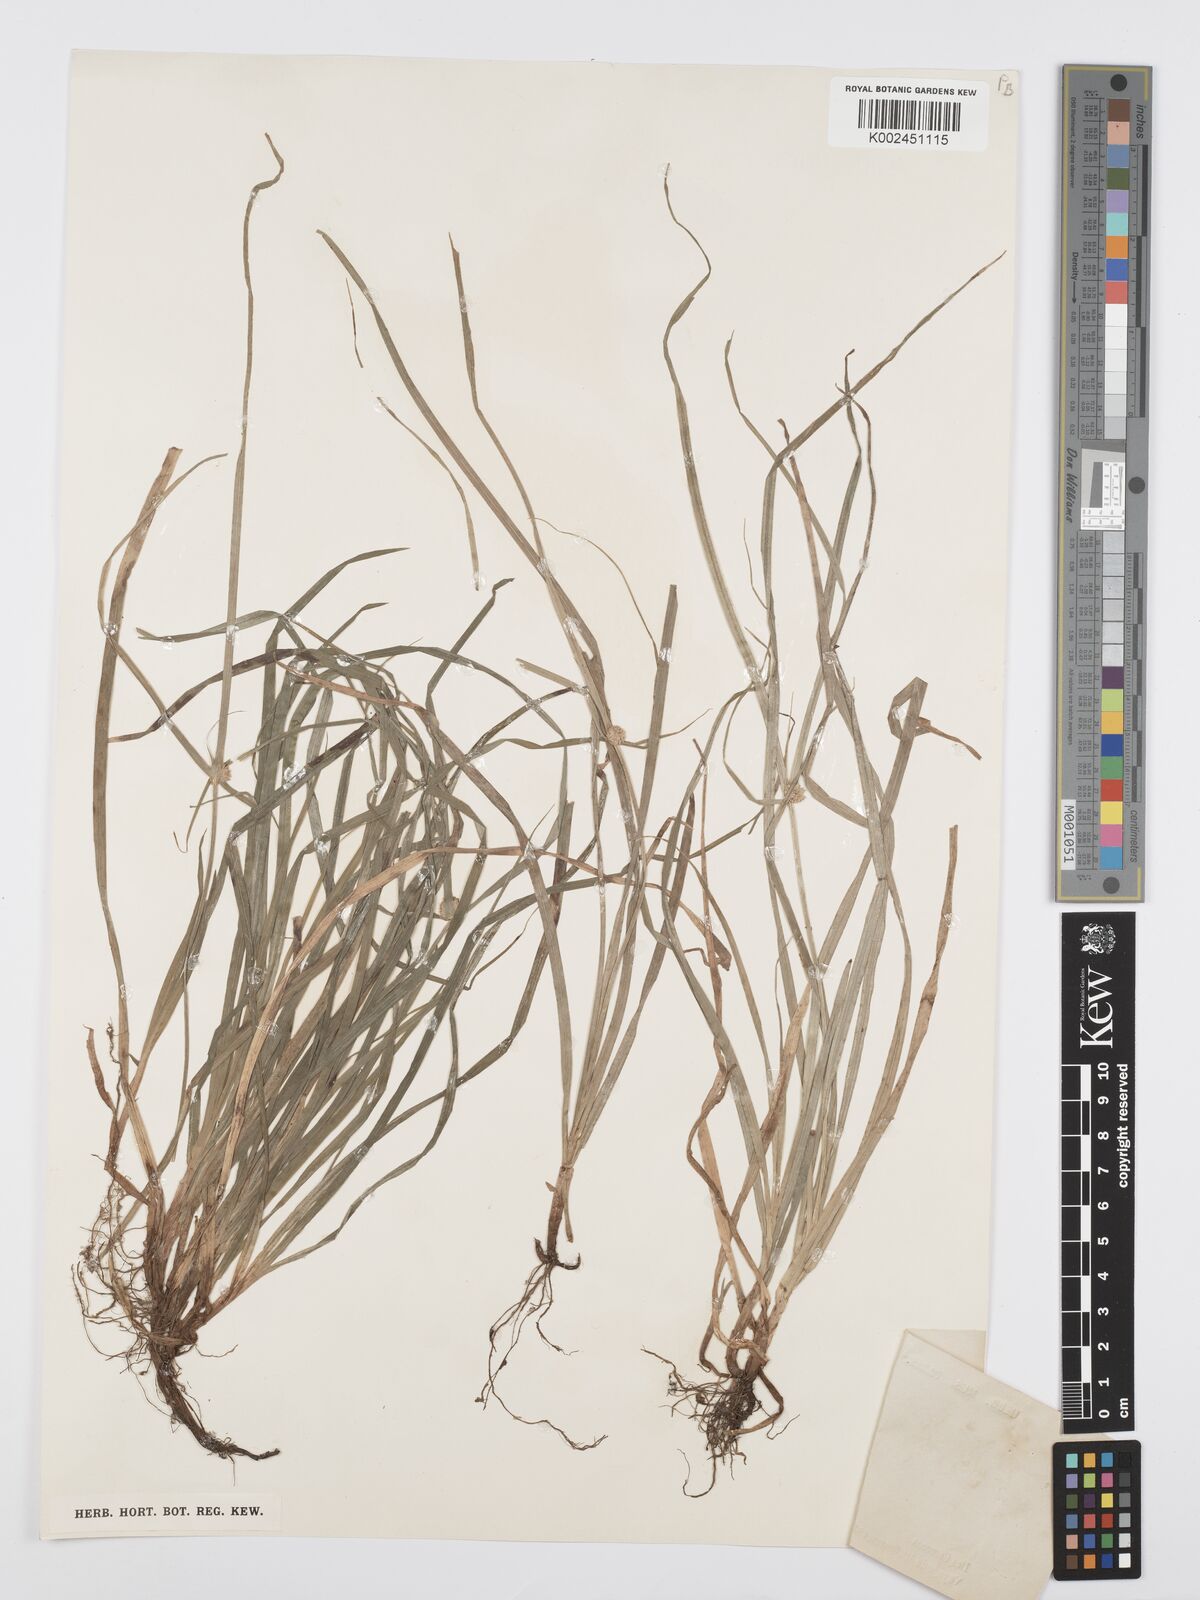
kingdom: Plantae
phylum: Tracheophyta
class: Liliopsida
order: Poales
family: Cyperaceae
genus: Cyperus
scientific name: Cyperus nemoralis
